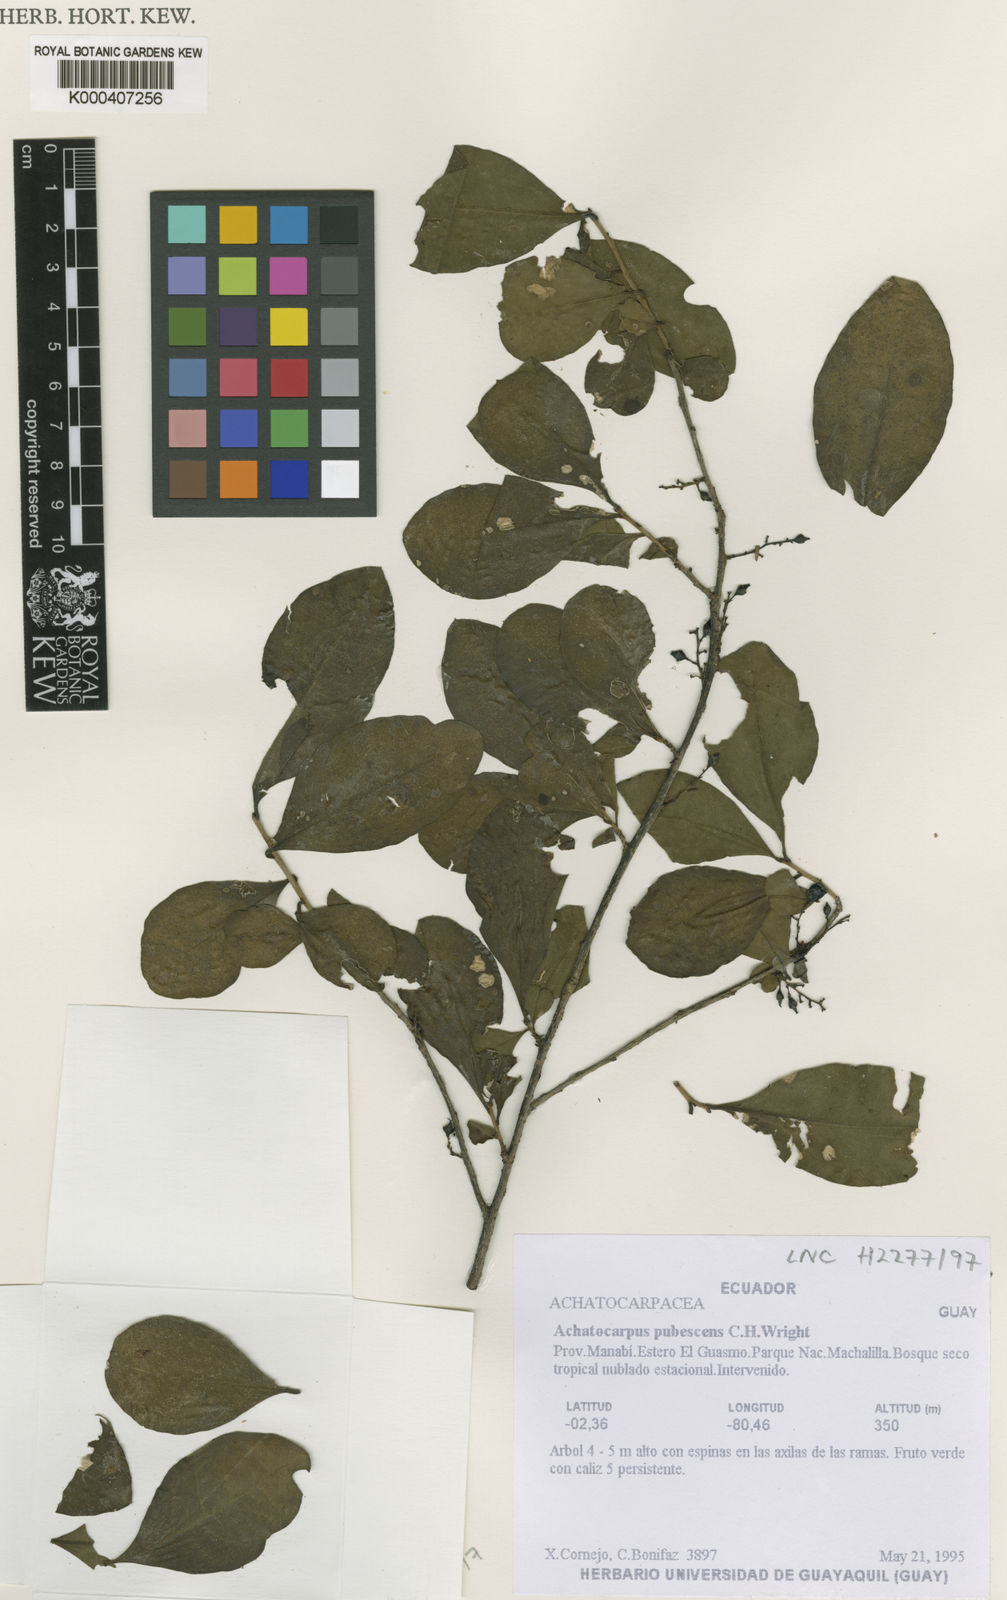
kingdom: Plantae
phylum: Tracheophyta
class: Magnoliopsida
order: Caryophyllales
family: Achatocarpaceae
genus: Achatocarpus
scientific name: Achatocarpus pubescens
